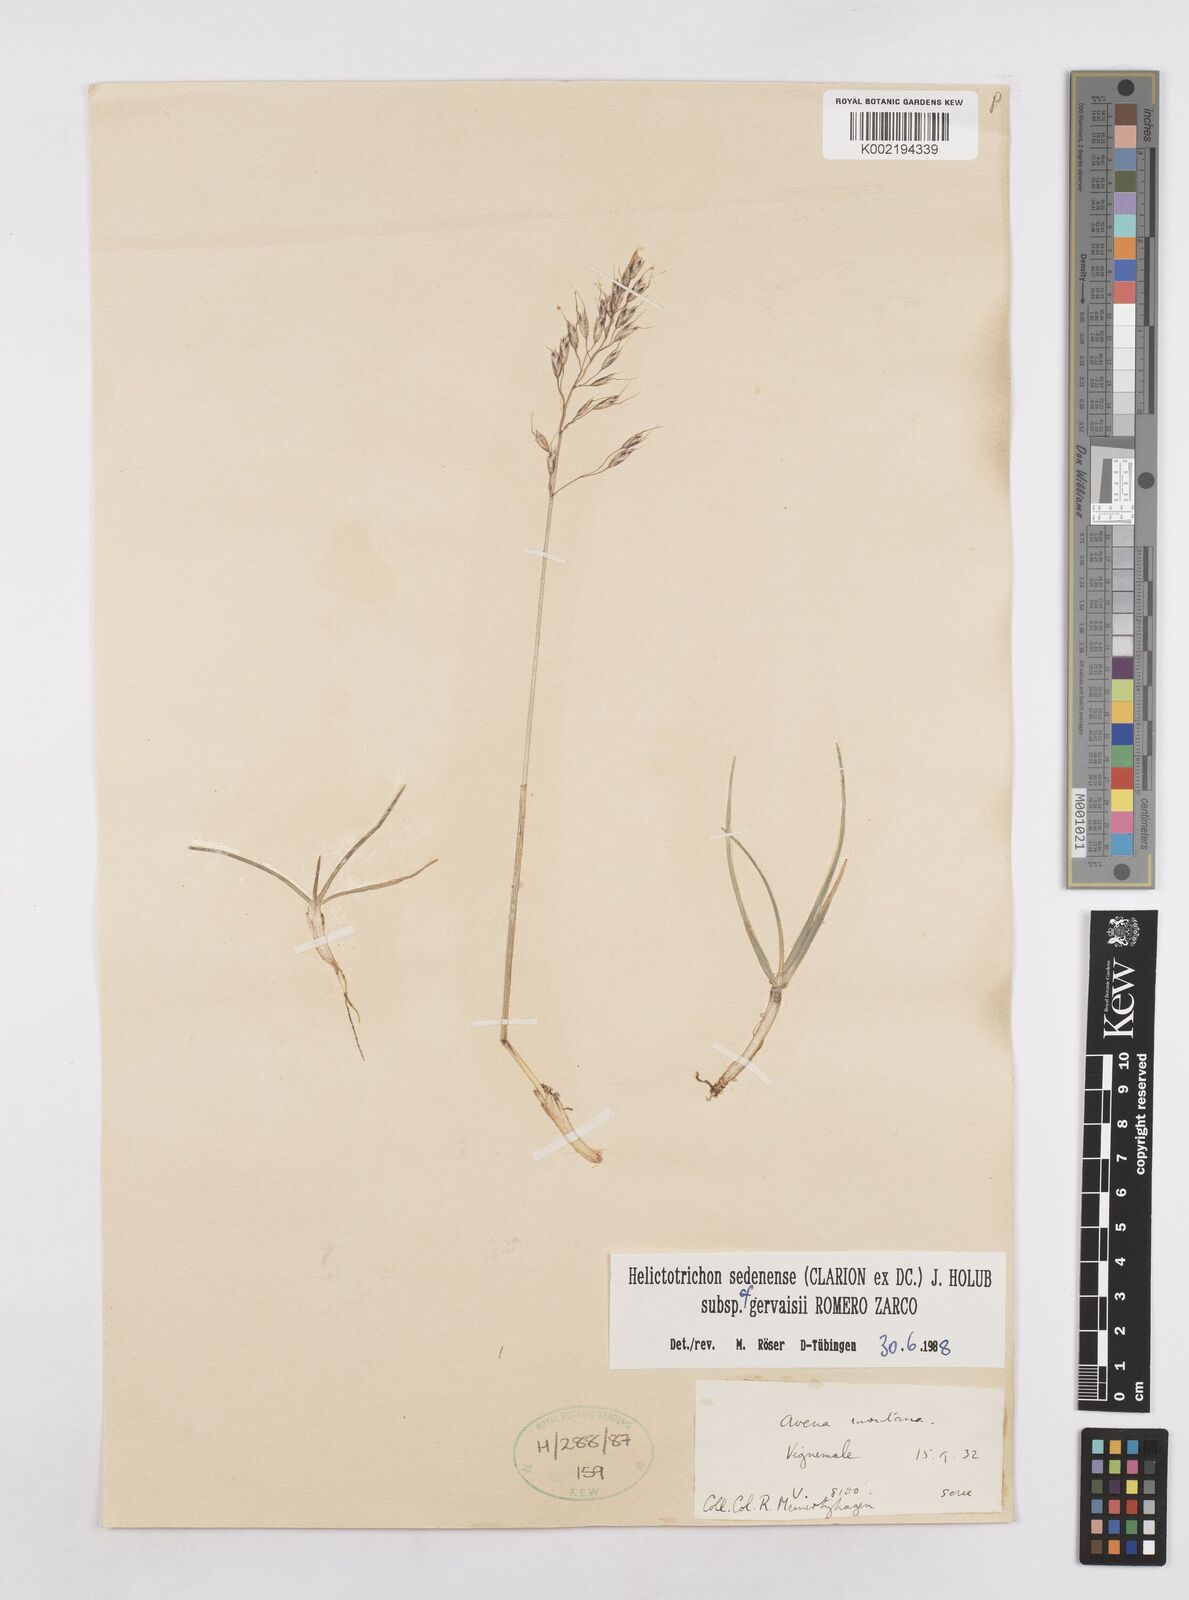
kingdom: Plantae
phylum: Tracheophyta
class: Liliopsida
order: Poales
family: Poaceae
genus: Helictotrichon
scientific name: Helictotrichon sedenense
